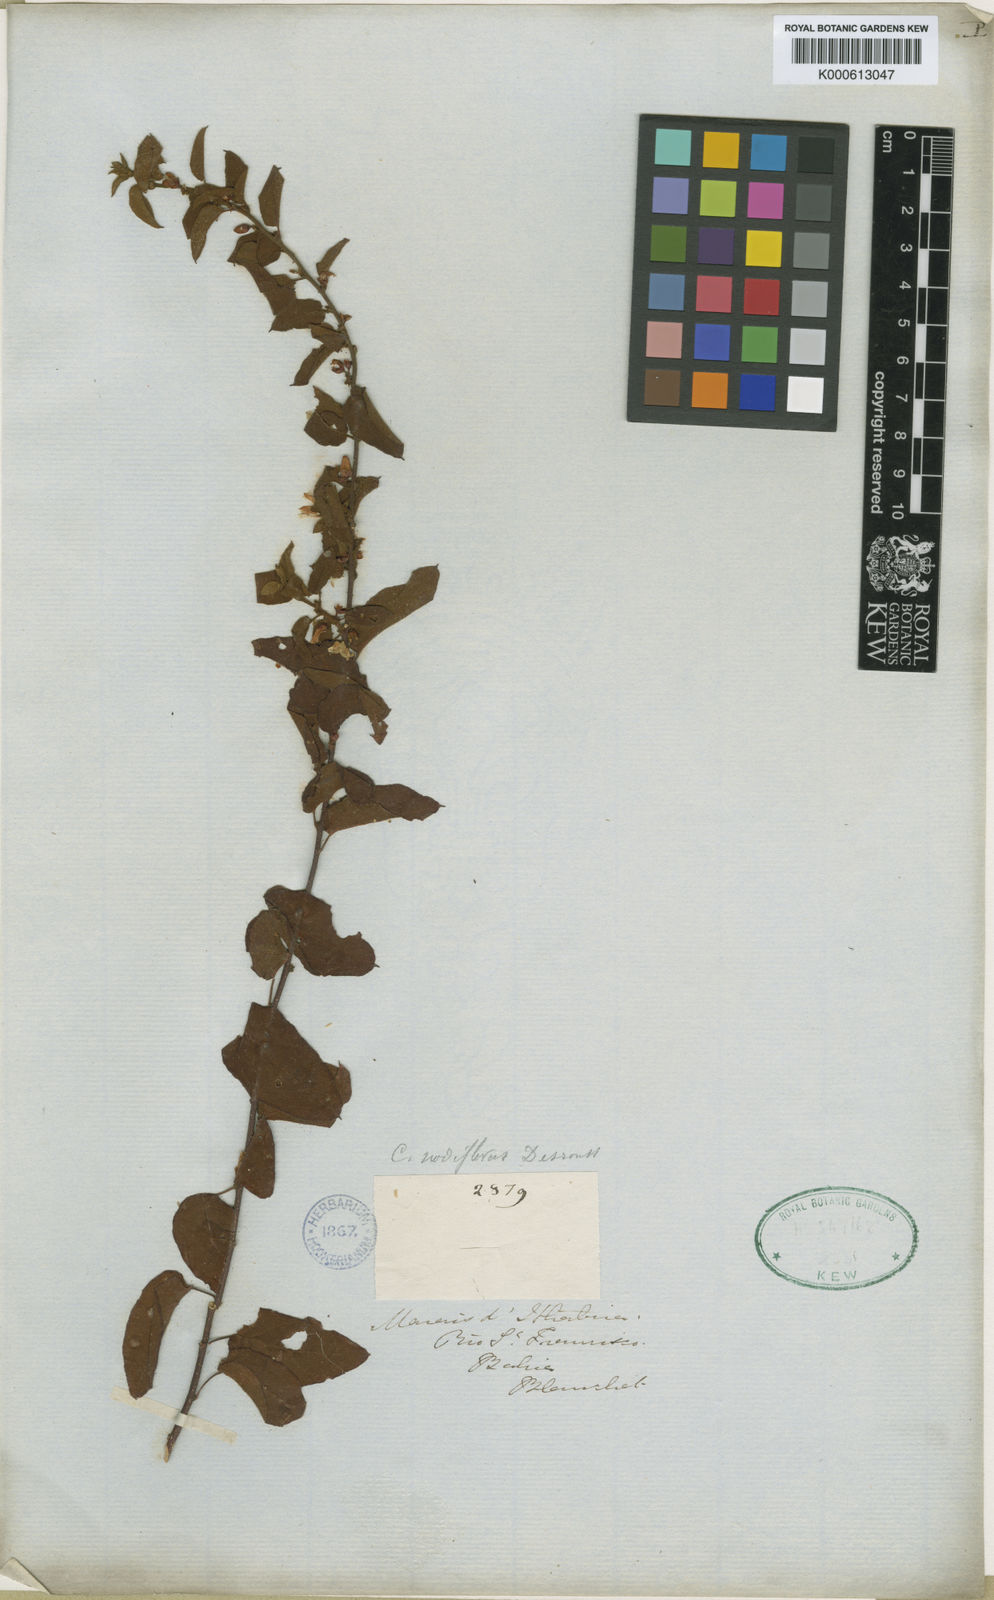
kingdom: Plantae
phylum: Tracheophyta
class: Magnoliopsida
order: Solanales
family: Convolvulaceae
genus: Jacquemontia
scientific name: Jacquemontia nodiflora
